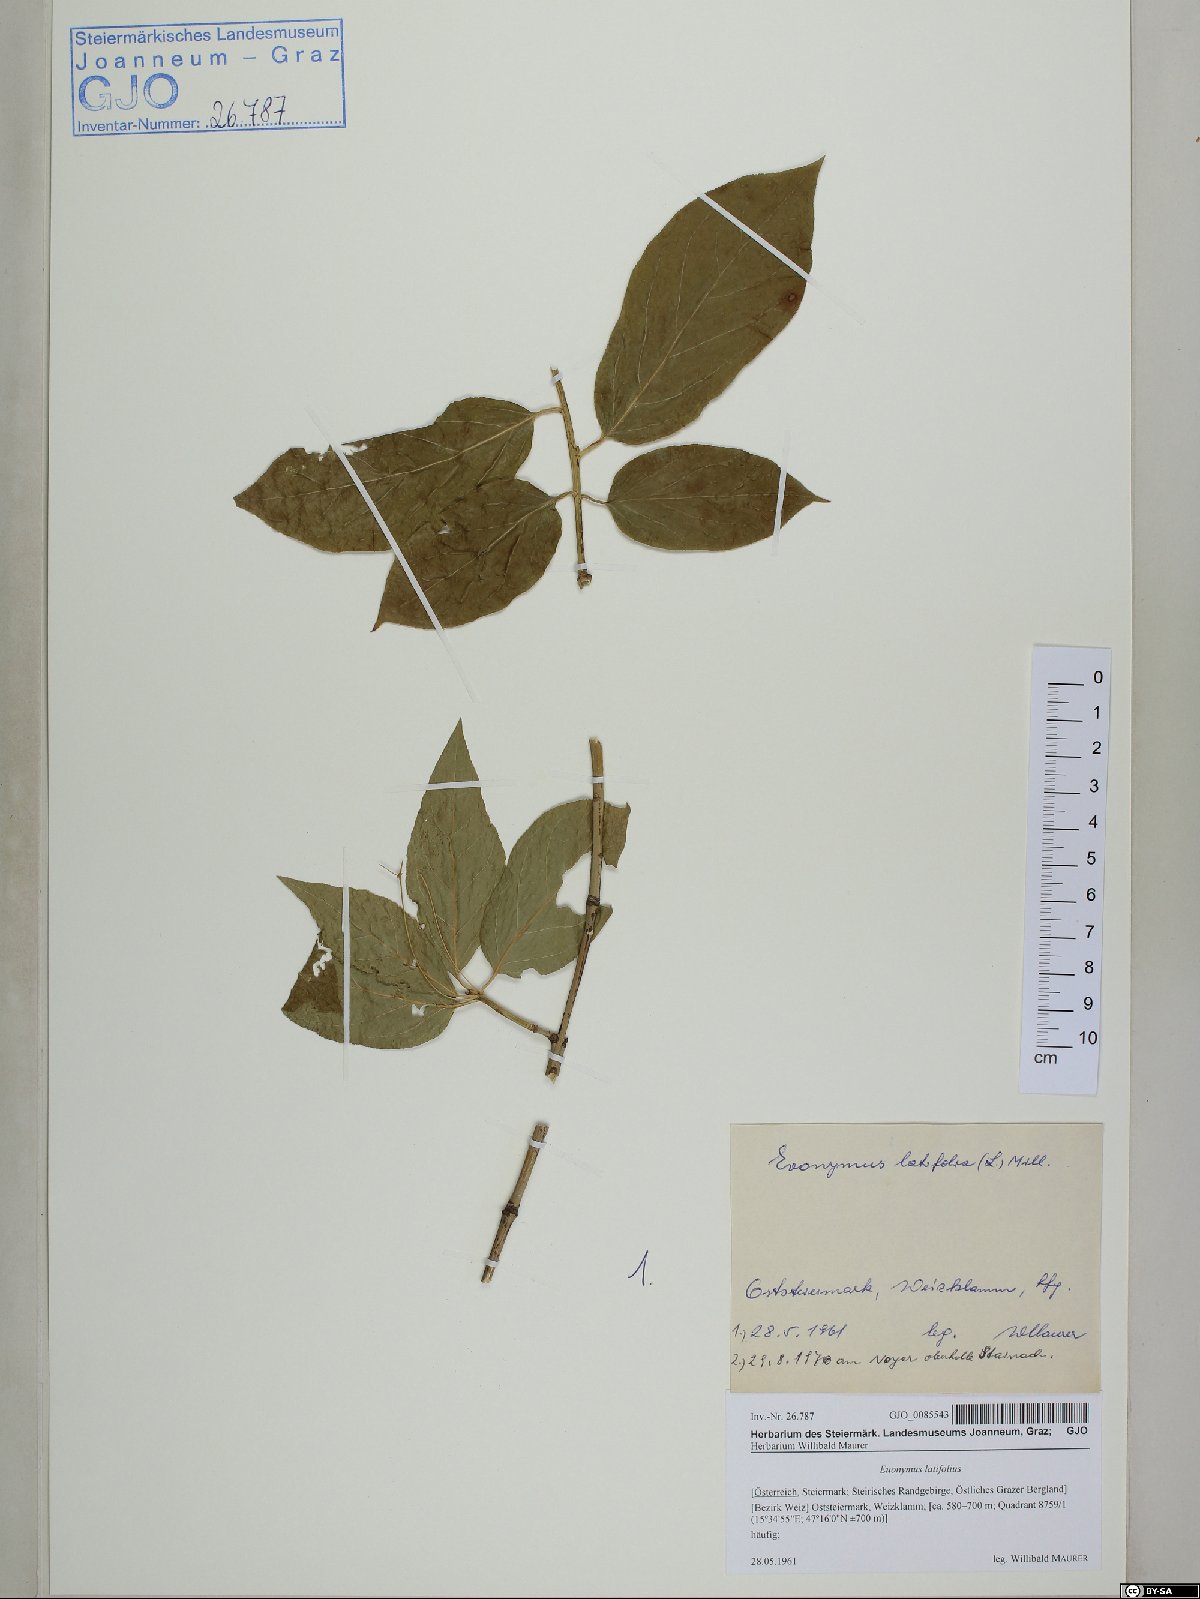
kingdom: Plantae
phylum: Tracheophyta
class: Magnoliopsida
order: Celastrales
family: Celastraceae
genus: Euonymus
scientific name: Euonymus latifolius
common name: Large-leaved spindle
